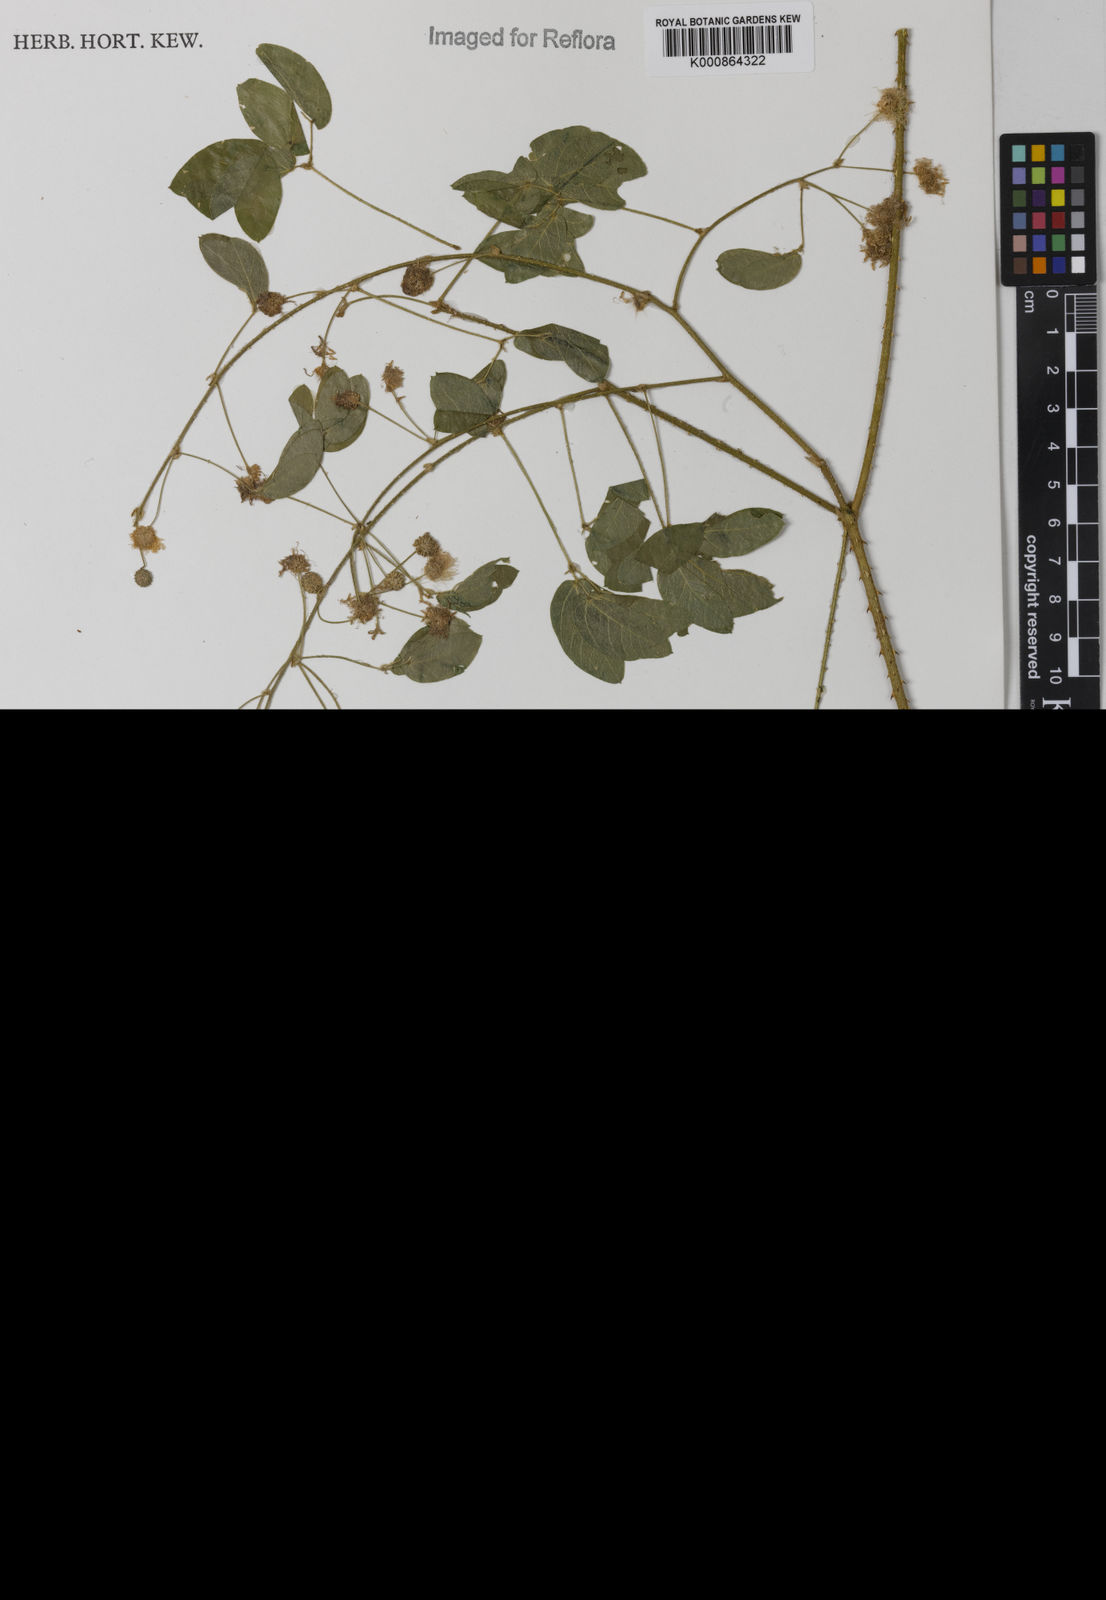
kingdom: Plantae
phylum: Tracheophyta
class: Magnoliopsida
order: Fabales
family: Fabaceae
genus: Mimosa
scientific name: Mimosa sensitiva
